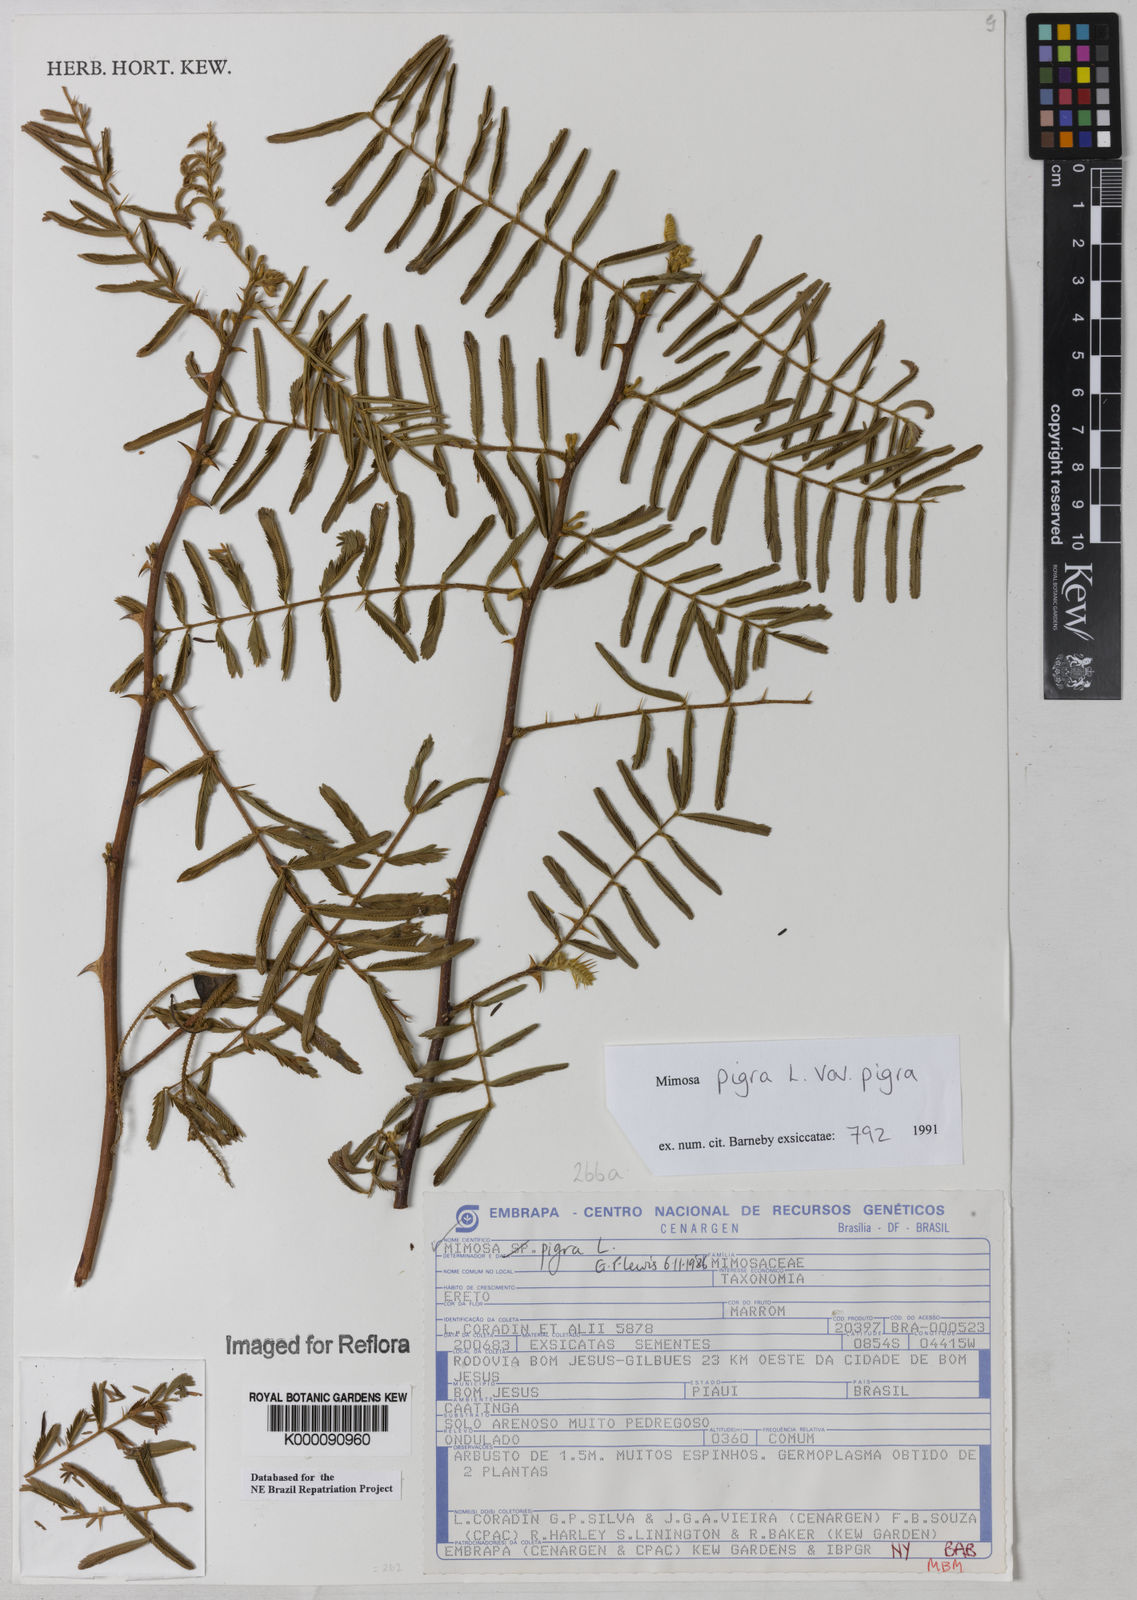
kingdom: Plantae
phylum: Tracheophyta
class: Magnoliopsida
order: Fabales
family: Fabaceae
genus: Mimosa
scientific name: Mimosa pigra
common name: Black mimosa
